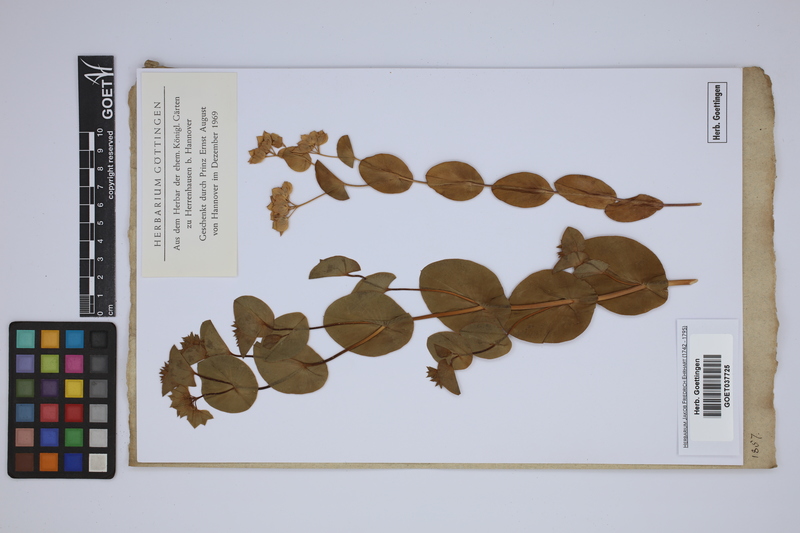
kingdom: Plantae
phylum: Tracheophyta
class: Magnoliopsida
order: Apiales
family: Apiaceae
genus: Bupleurum
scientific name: Bupleurum
